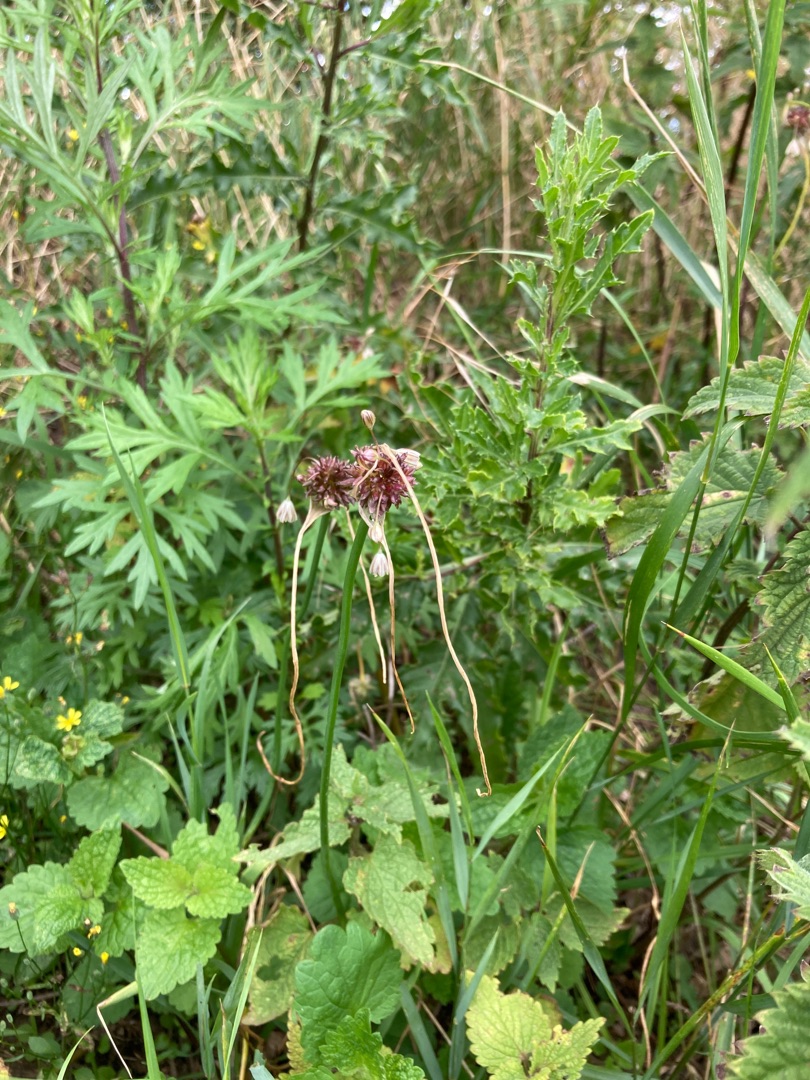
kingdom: Plantae
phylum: Tracheophyta
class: Liliopsida
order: Asparagales
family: Amaryllidaceae
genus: Allium
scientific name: Allium oleraceum
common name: Vild løg
